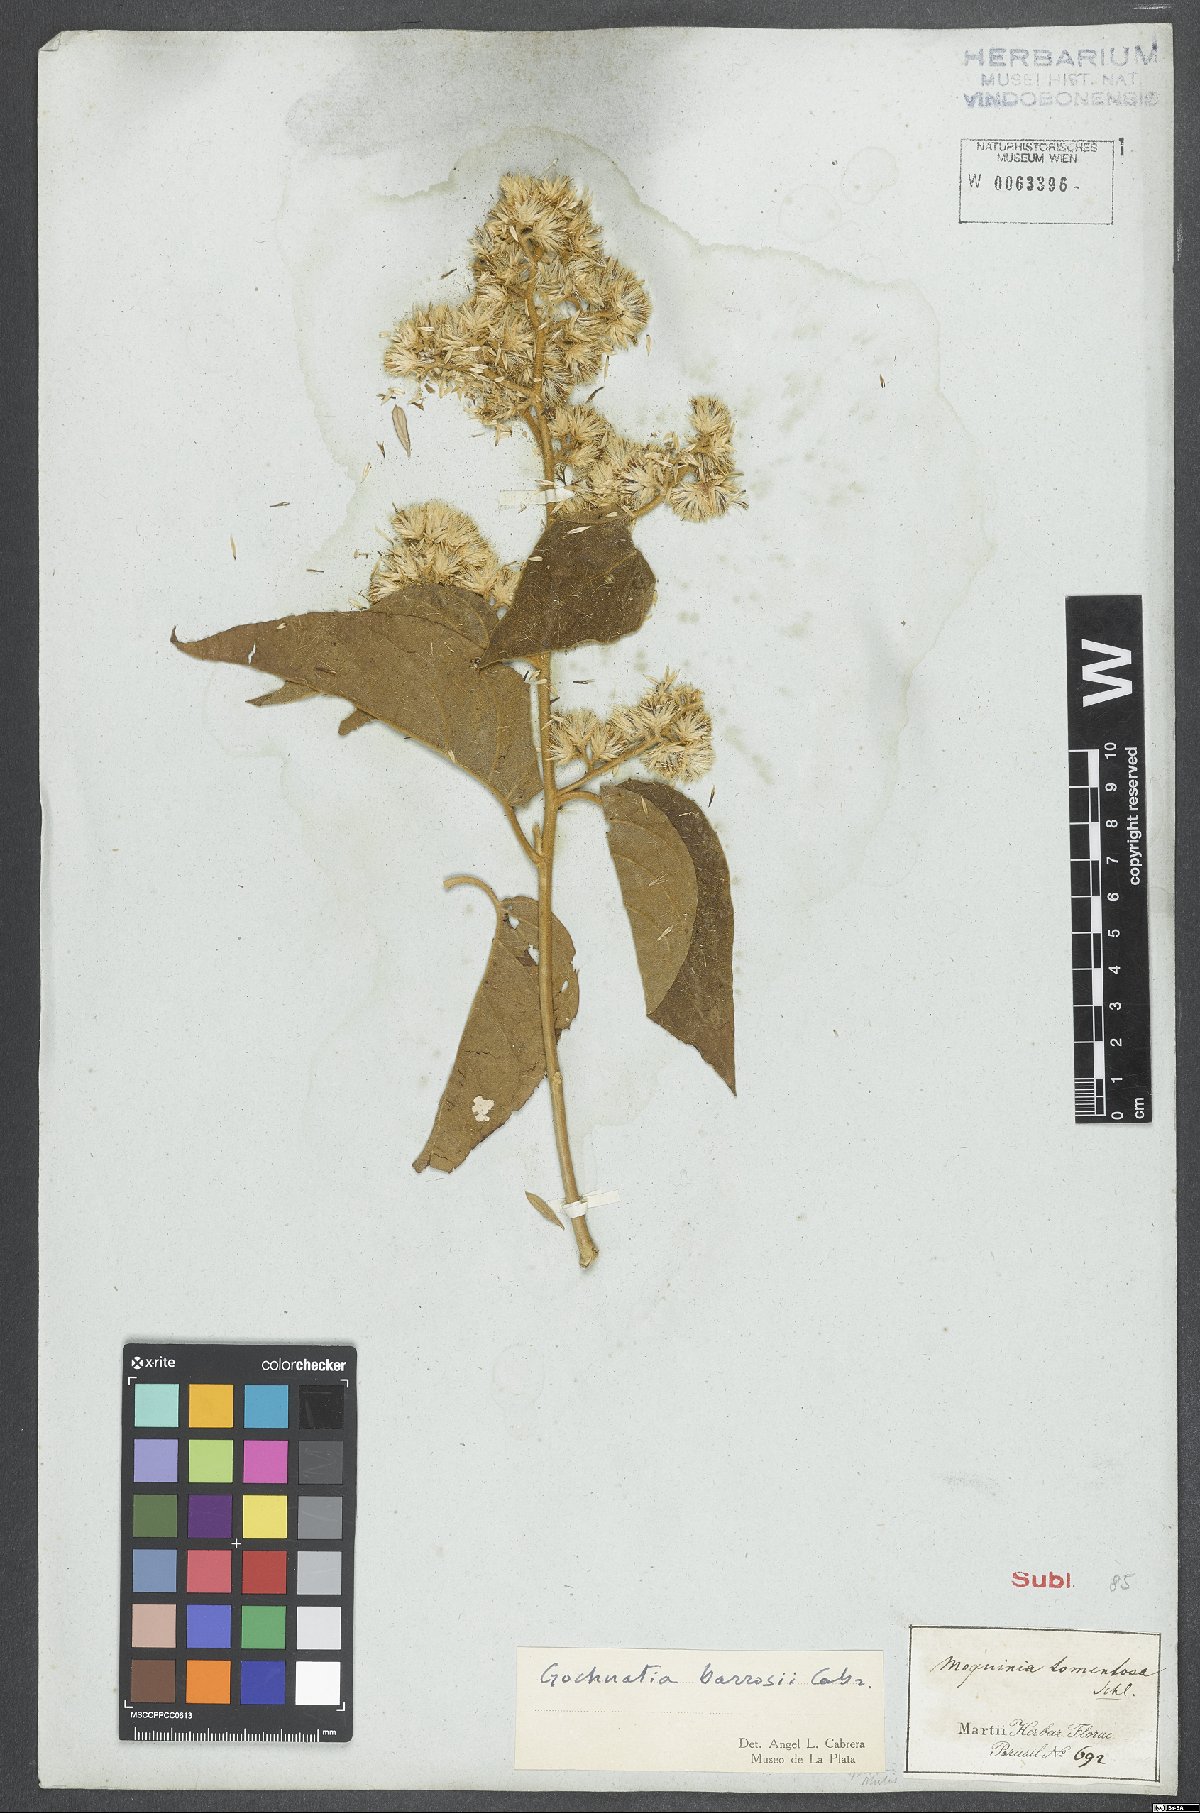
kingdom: Plantae
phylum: Tracheophyta
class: Magnoliopsida
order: Asterales
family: Asteraceae
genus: Moquiniastrum
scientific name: Moquiniastrum barrosoae
